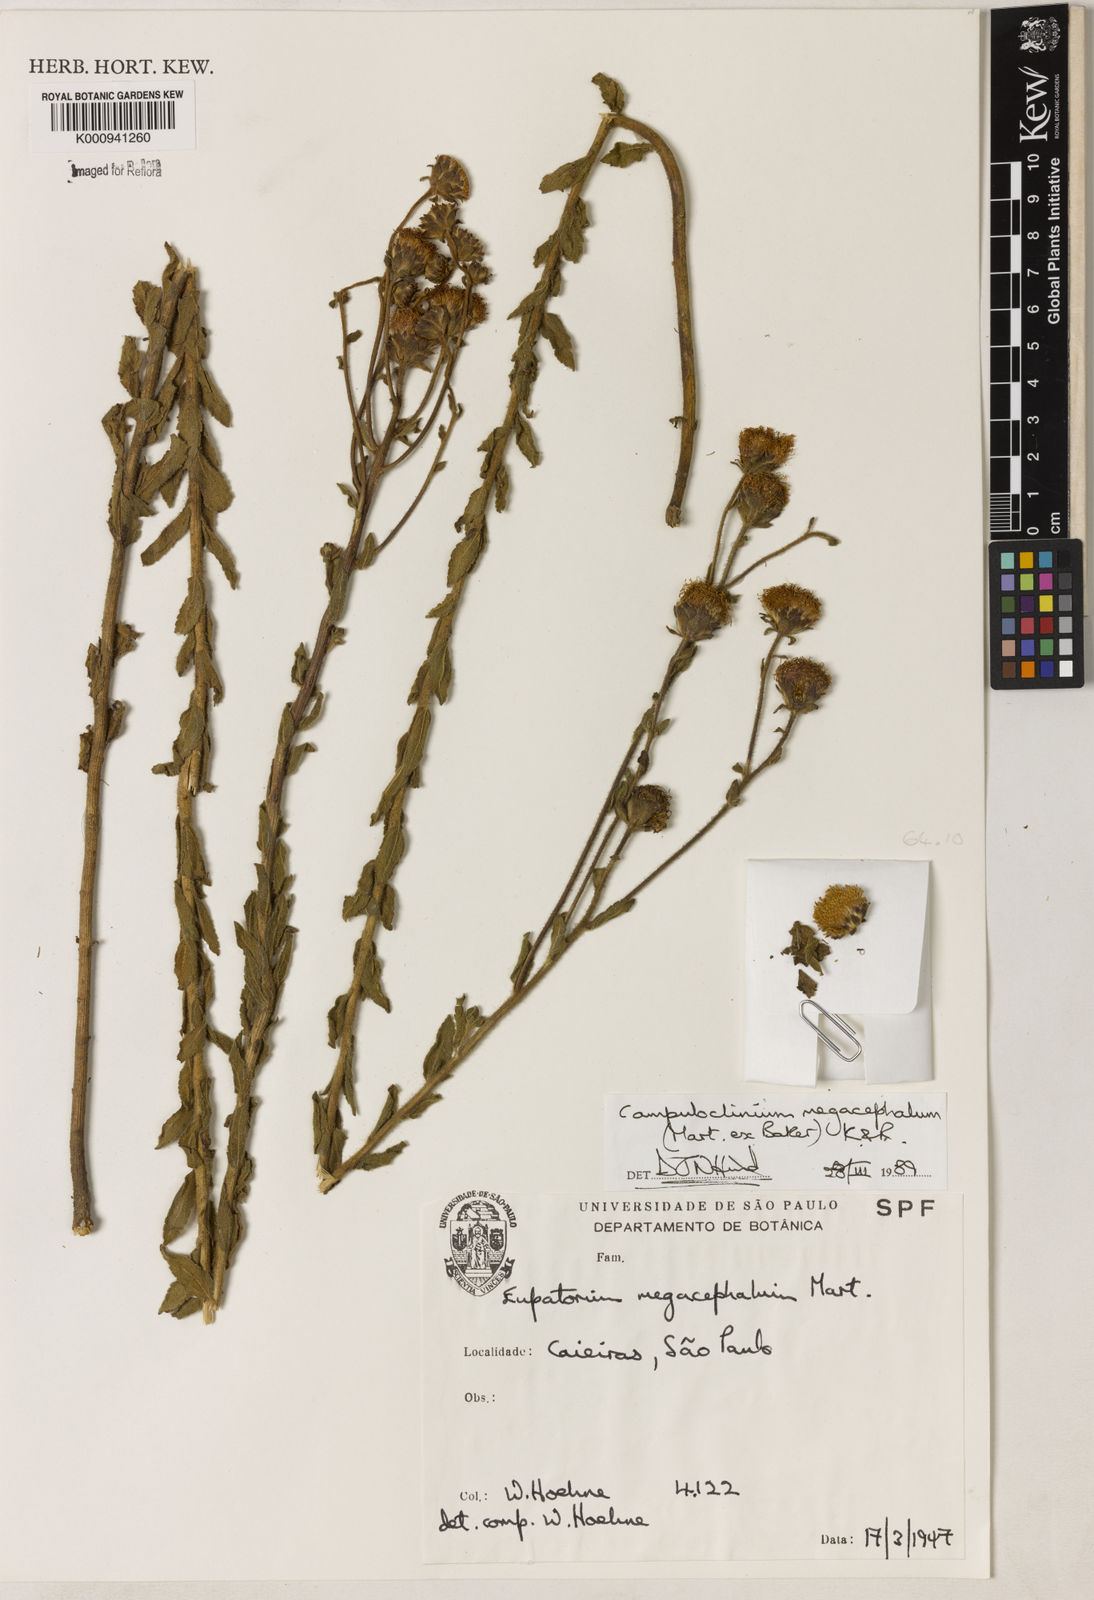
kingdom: Plantae
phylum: Tracheophyta
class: Magnoliopsida
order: Asterales
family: Asteraceae
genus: Campuloclinium
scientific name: Campuloclinium megacephalum
